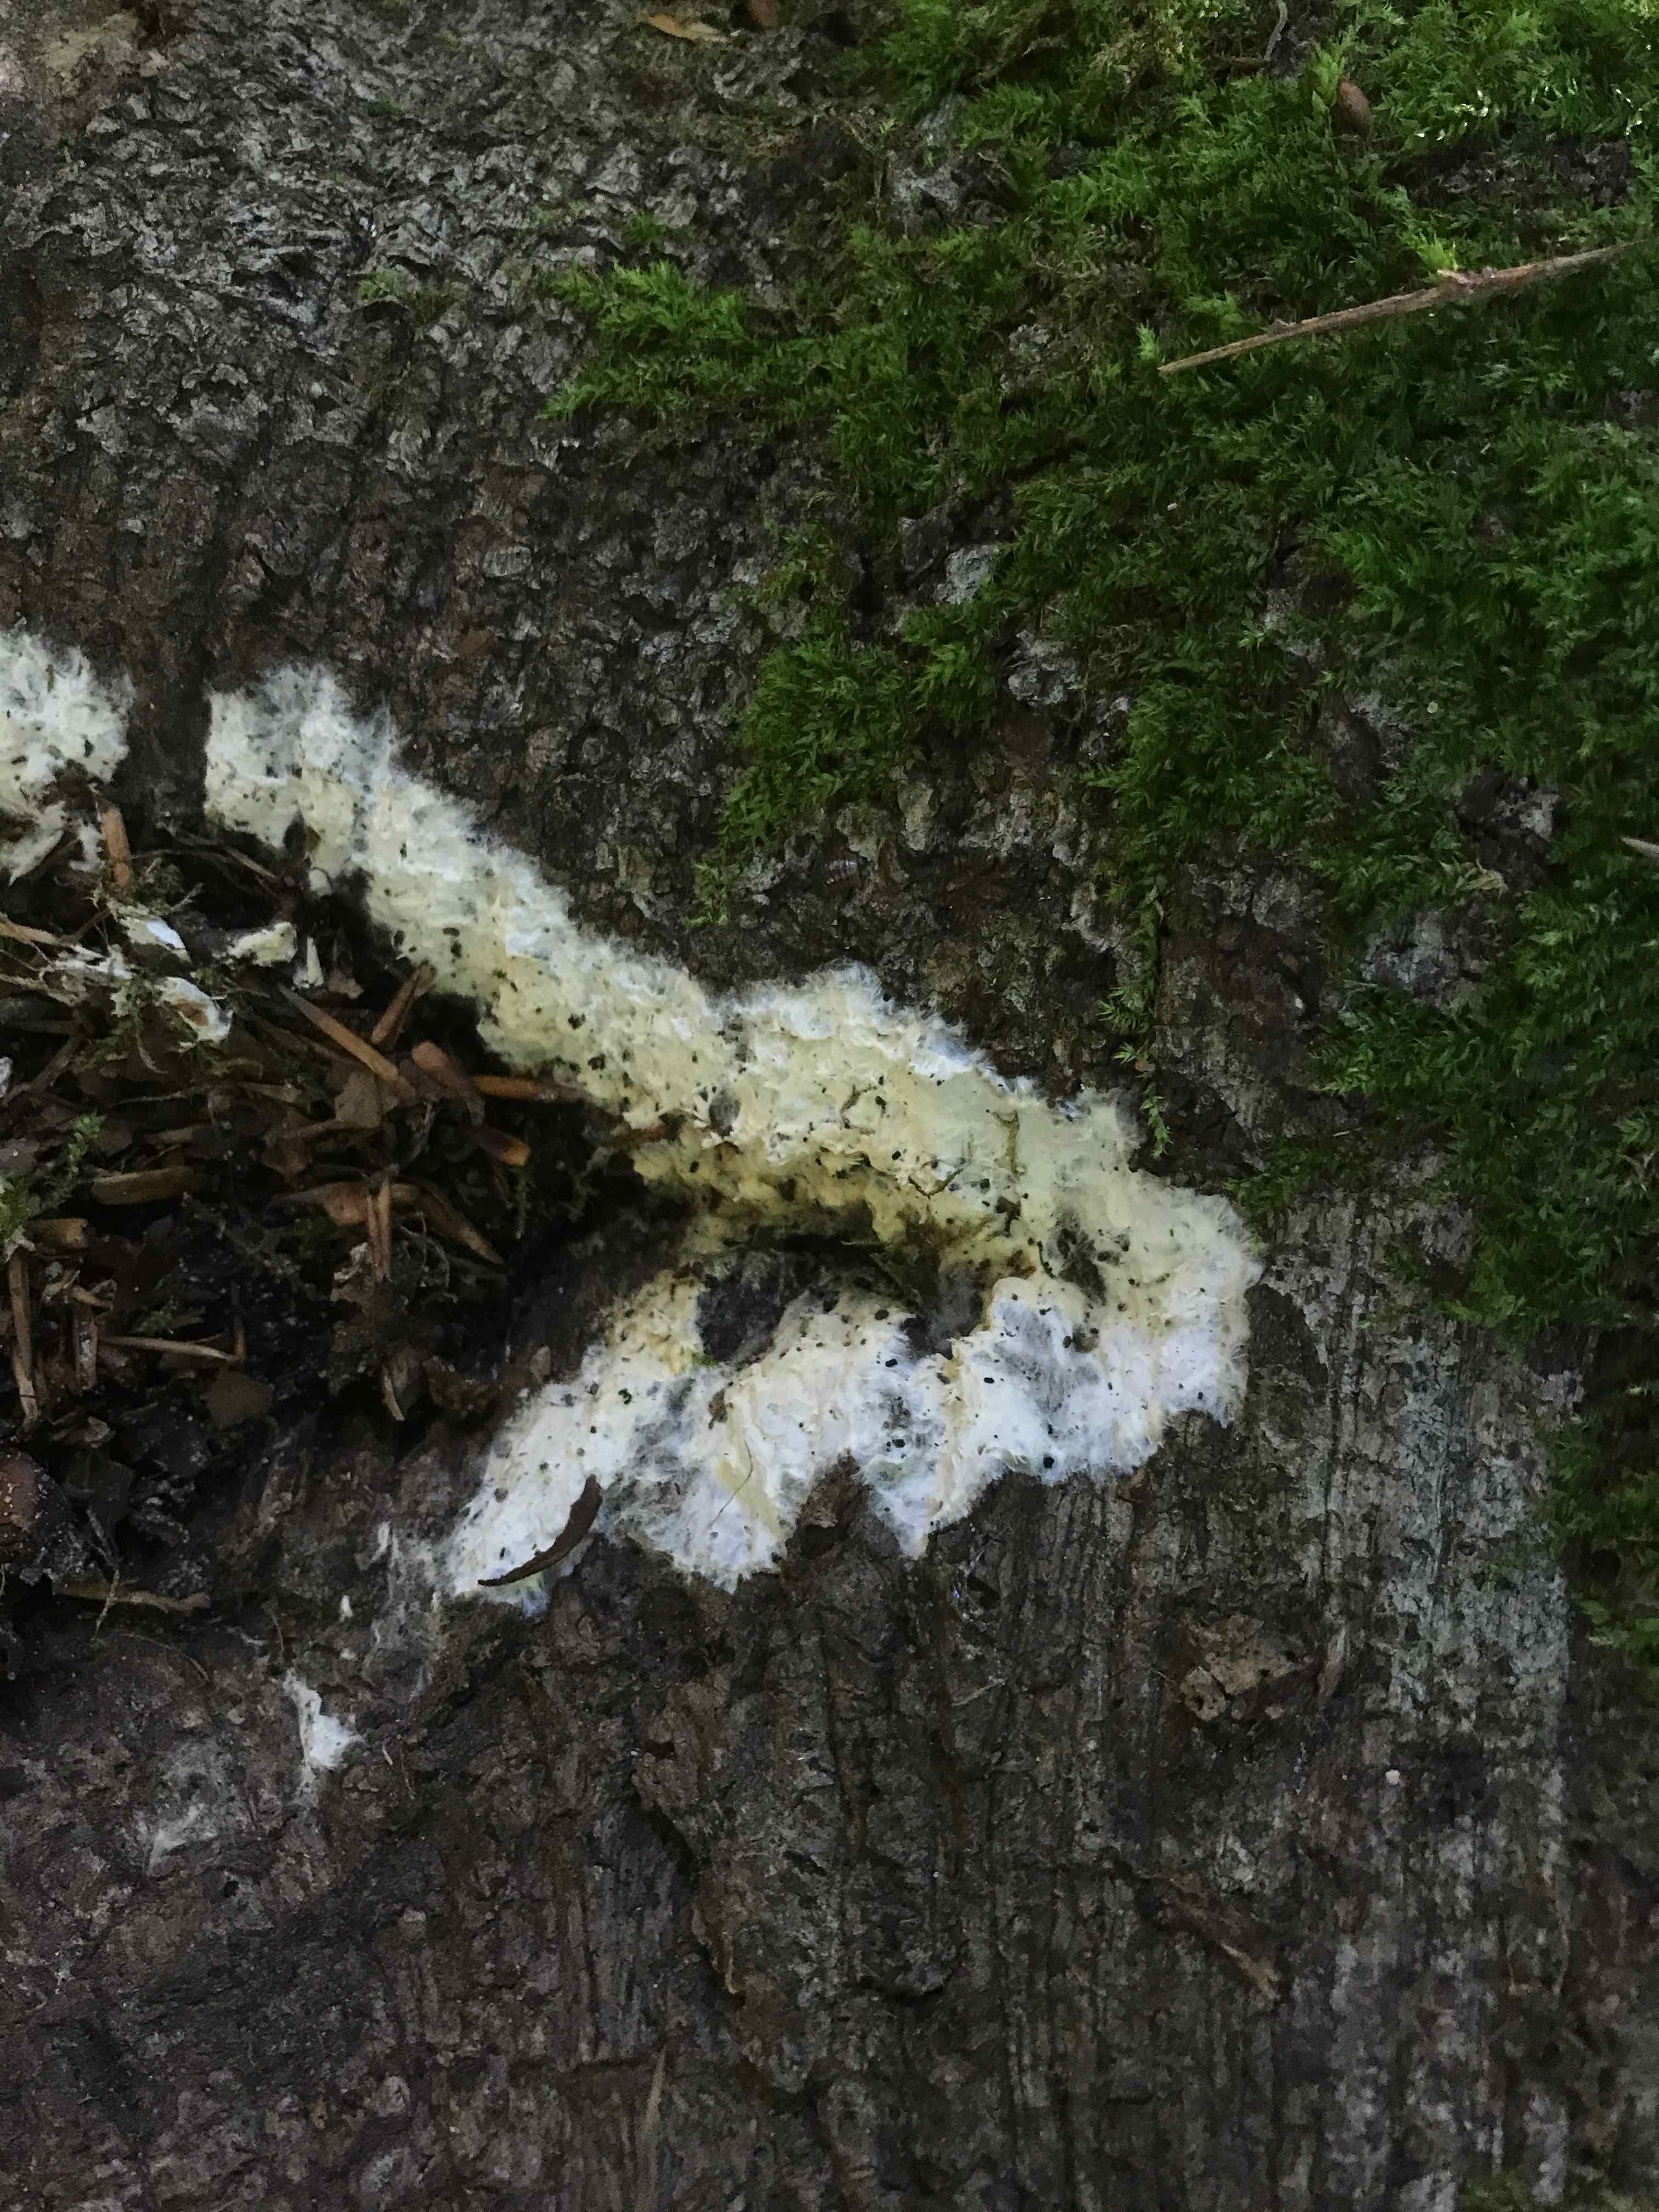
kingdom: Fungi
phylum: Ascomycota
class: Sordariomycetes
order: Hypocreales
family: Hypocreaceae
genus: Trichoderma
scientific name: Trichoderma citrinum
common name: udbredt kødkerne
